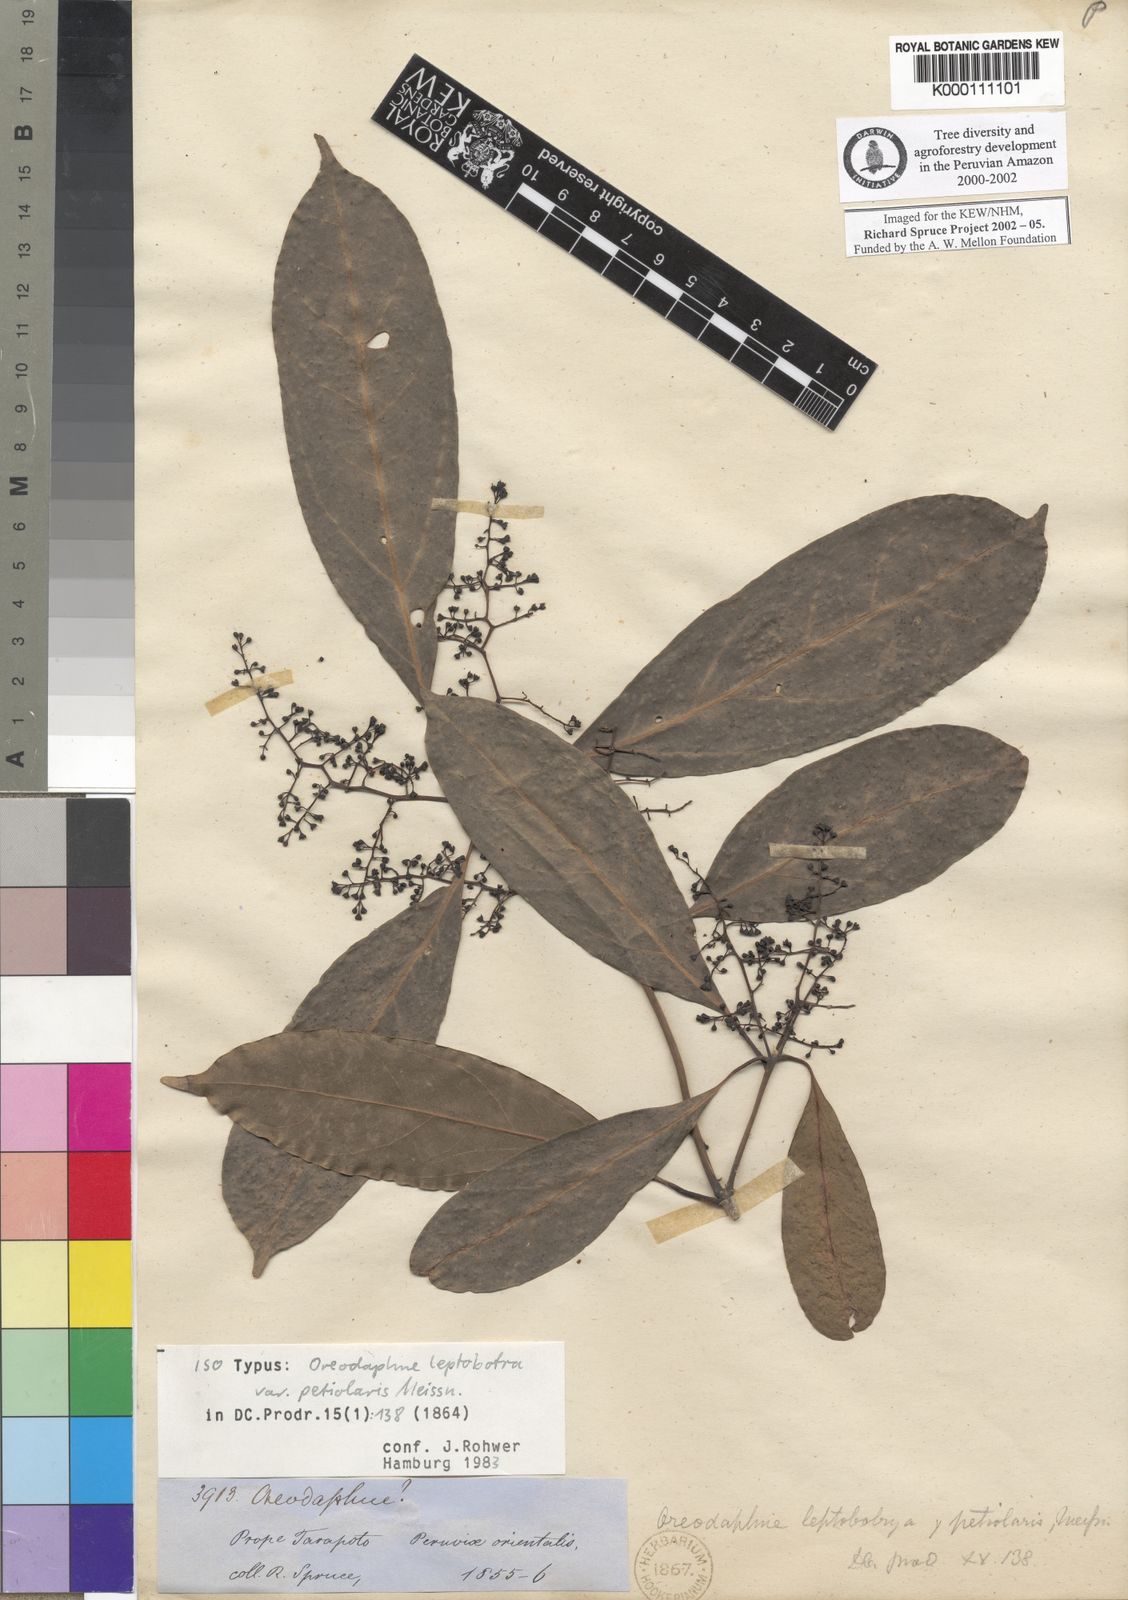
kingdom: Plantae
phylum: Tracheophyta
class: Magnoliopsida
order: Laurales
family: Lauraceae
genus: Ocotea
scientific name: Ocotea leptobotra
